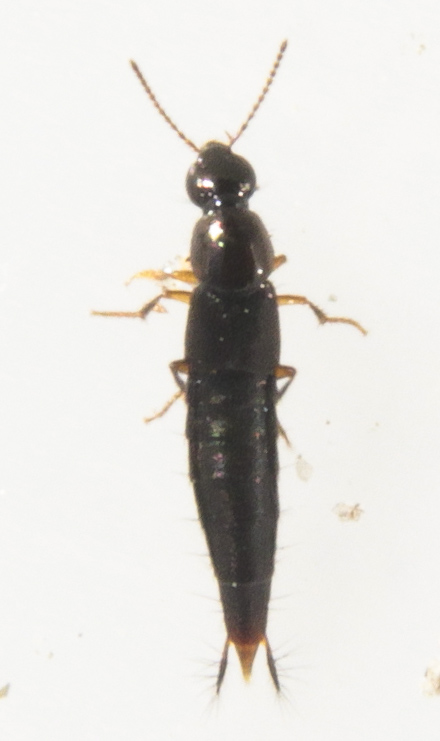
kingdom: Animalia
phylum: Arthropoda
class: Insecta
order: Coleoptera
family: Staphylinidae
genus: Quedius
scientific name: Quedius
